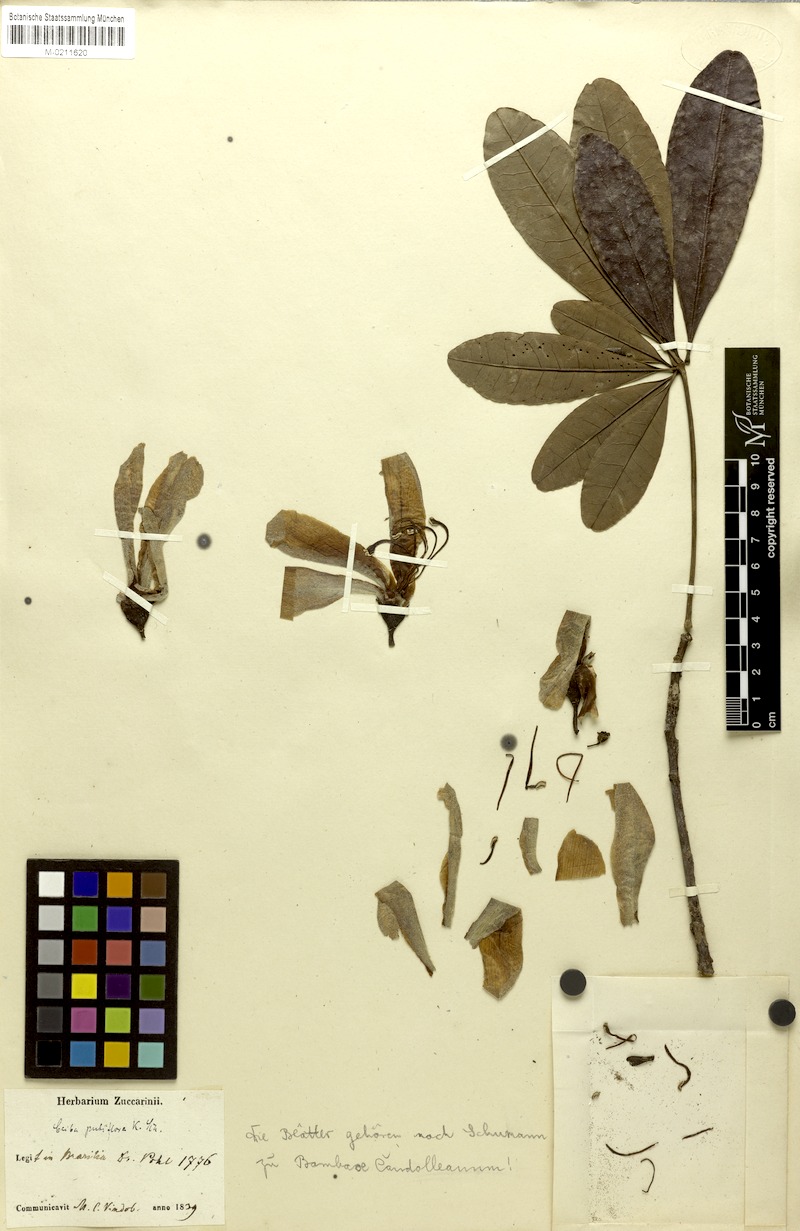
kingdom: Plantae
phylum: Tracheophyta
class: Magnoliopsida
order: Malvales
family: Malvaceae
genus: Ceiba
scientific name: Ceiba pubiflora
